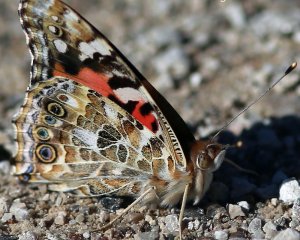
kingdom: Animalia
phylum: Arthropoda
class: Insecta
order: Lepidoptera
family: Nymphalidae
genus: Vanessa
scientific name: Vanessa cardui
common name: Painted Lady
